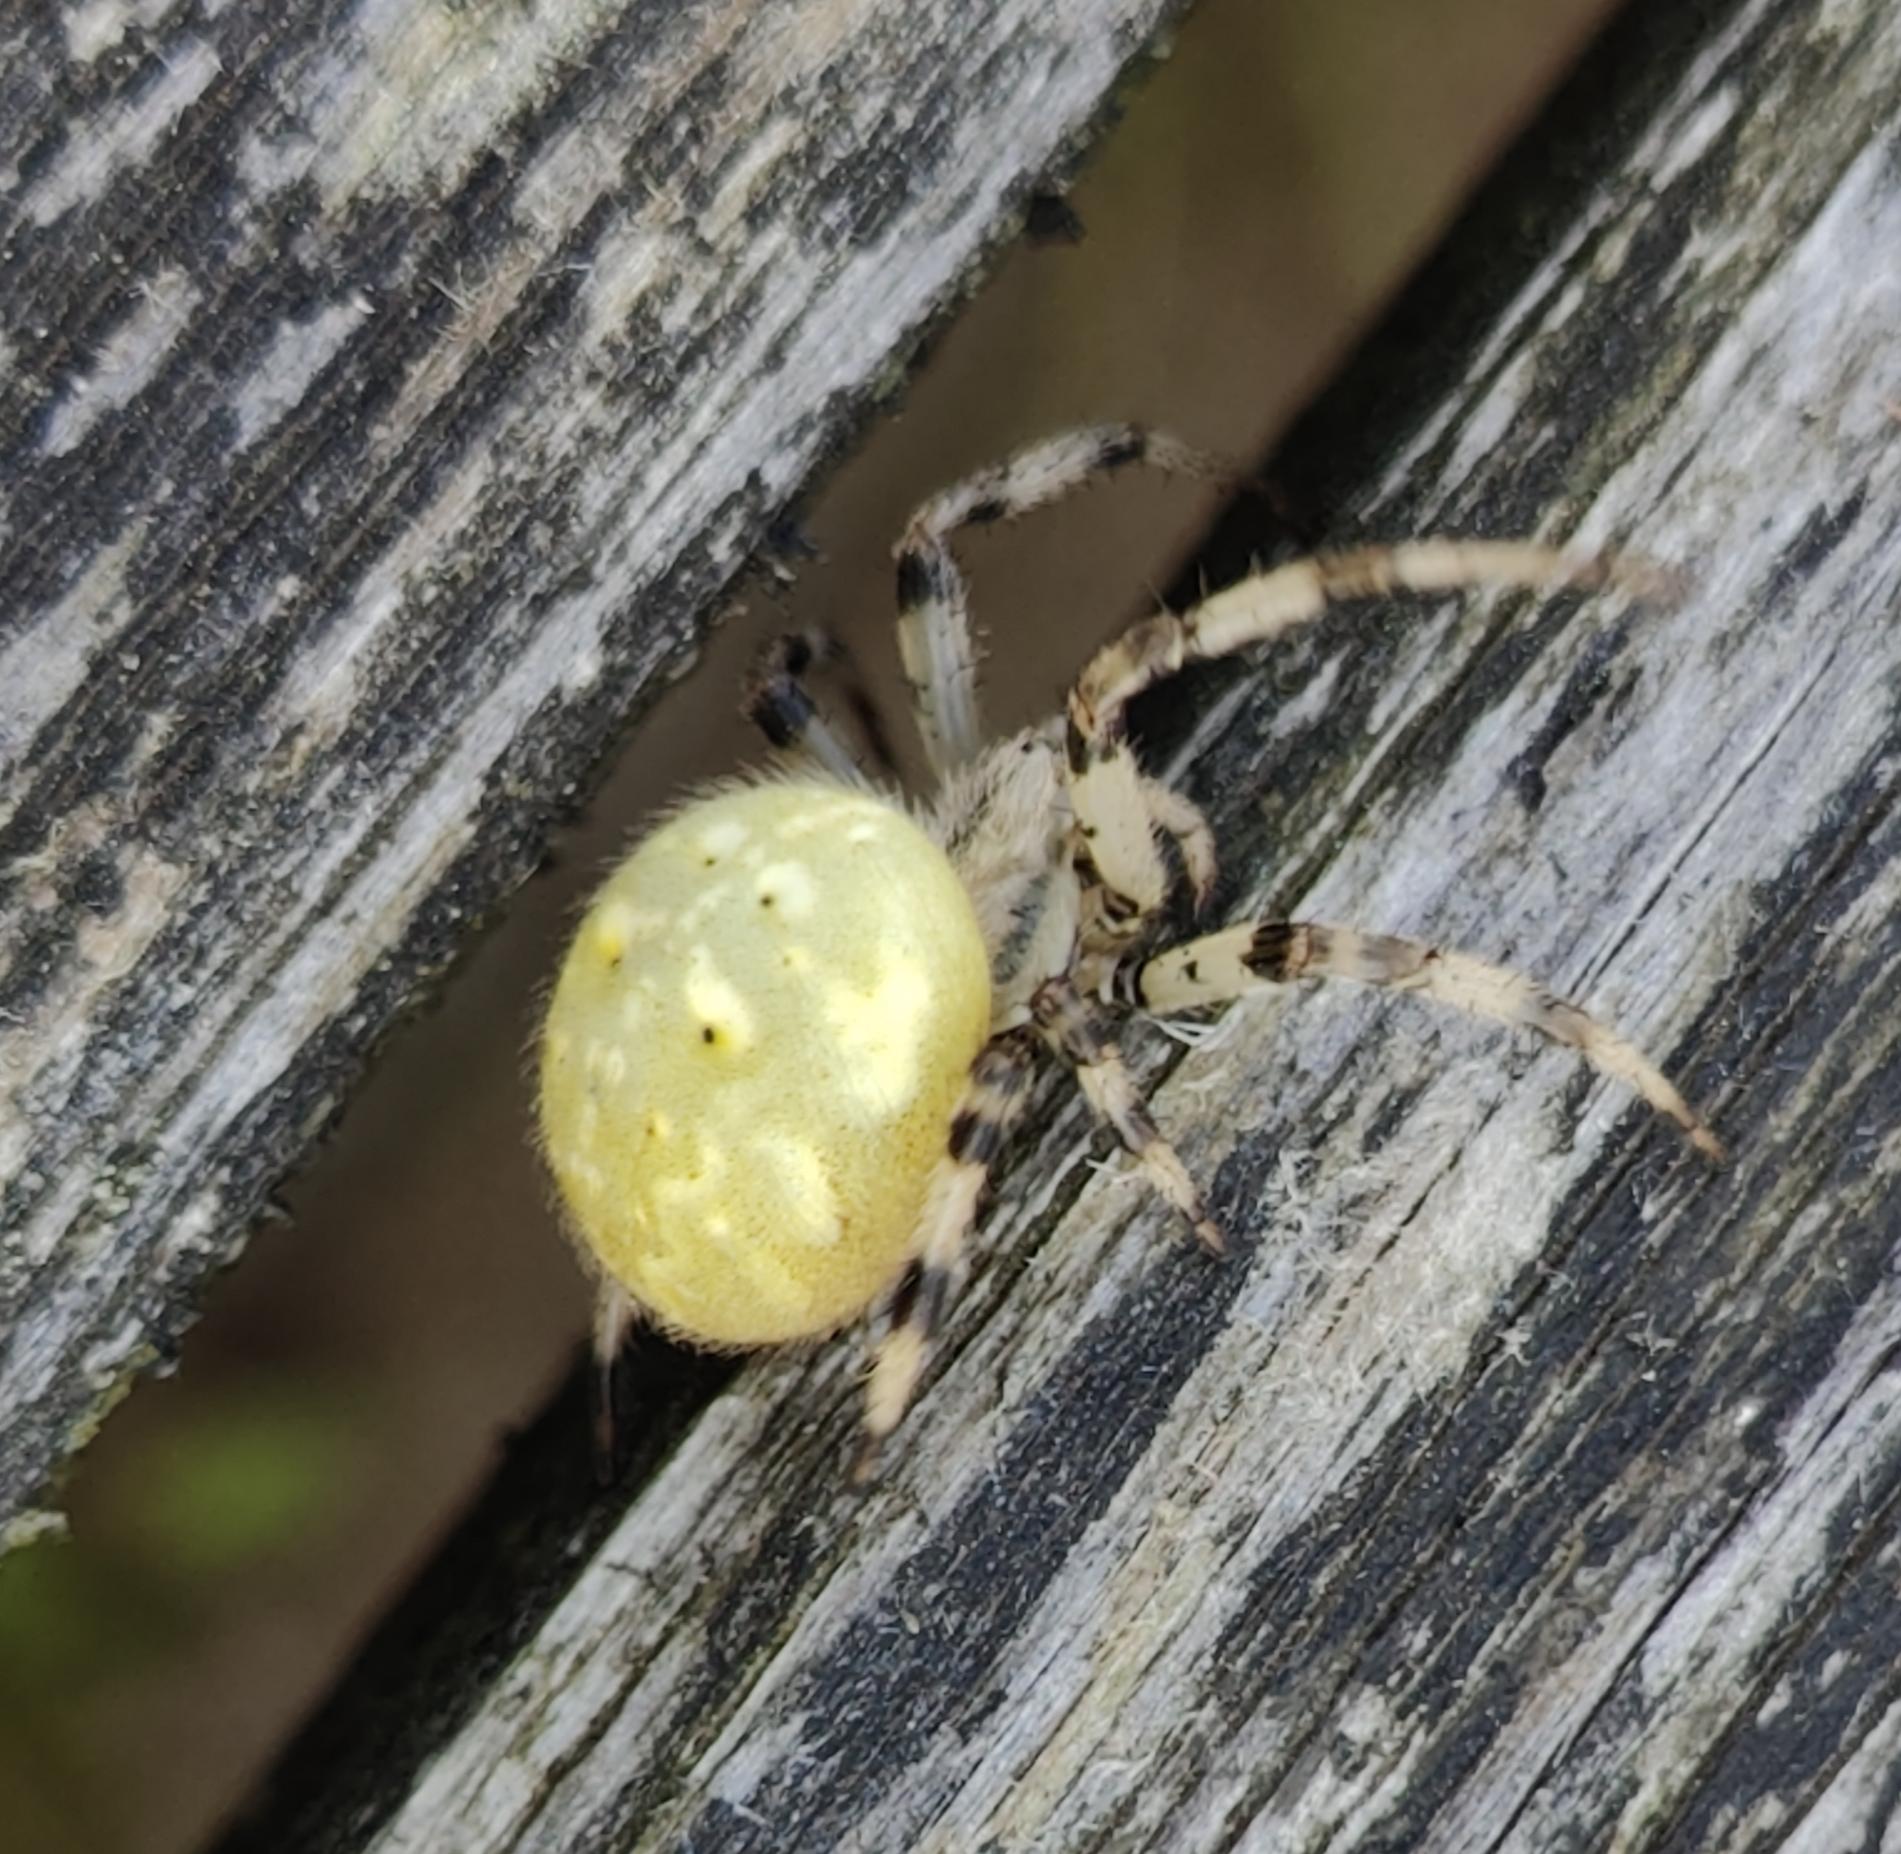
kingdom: Animalia
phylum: Arthropoda
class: Arachnida
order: Araneae
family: Araneidae
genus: Araneus
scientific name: Araneus quadratus
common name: Kvadratedderkop
